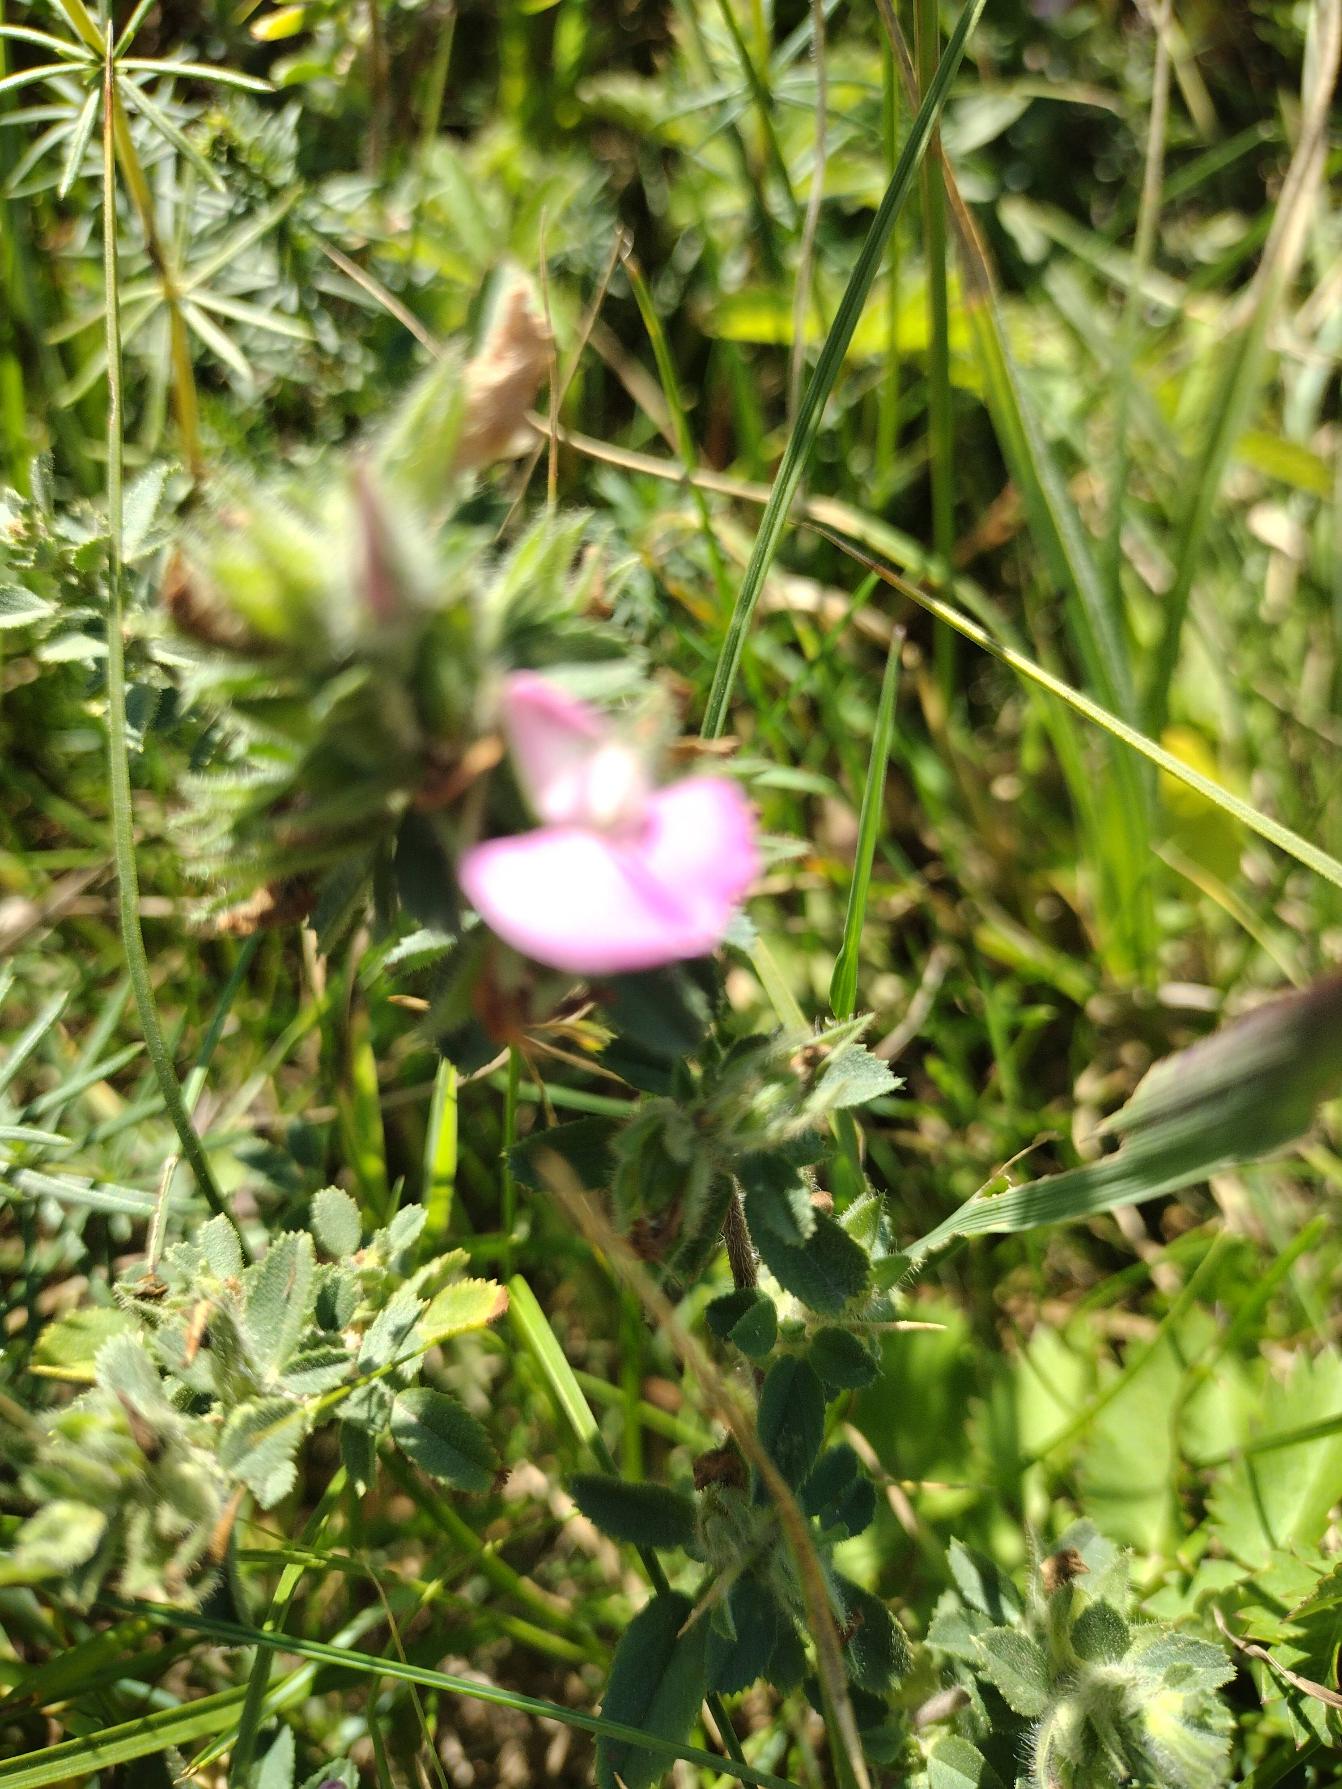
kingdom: Plantae
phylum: Tracheophyta
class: Magnoliopsida
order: Fabales
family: Fabaceae
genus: Ononis
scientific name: Ononis spinosa
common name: Mark-krageklo
